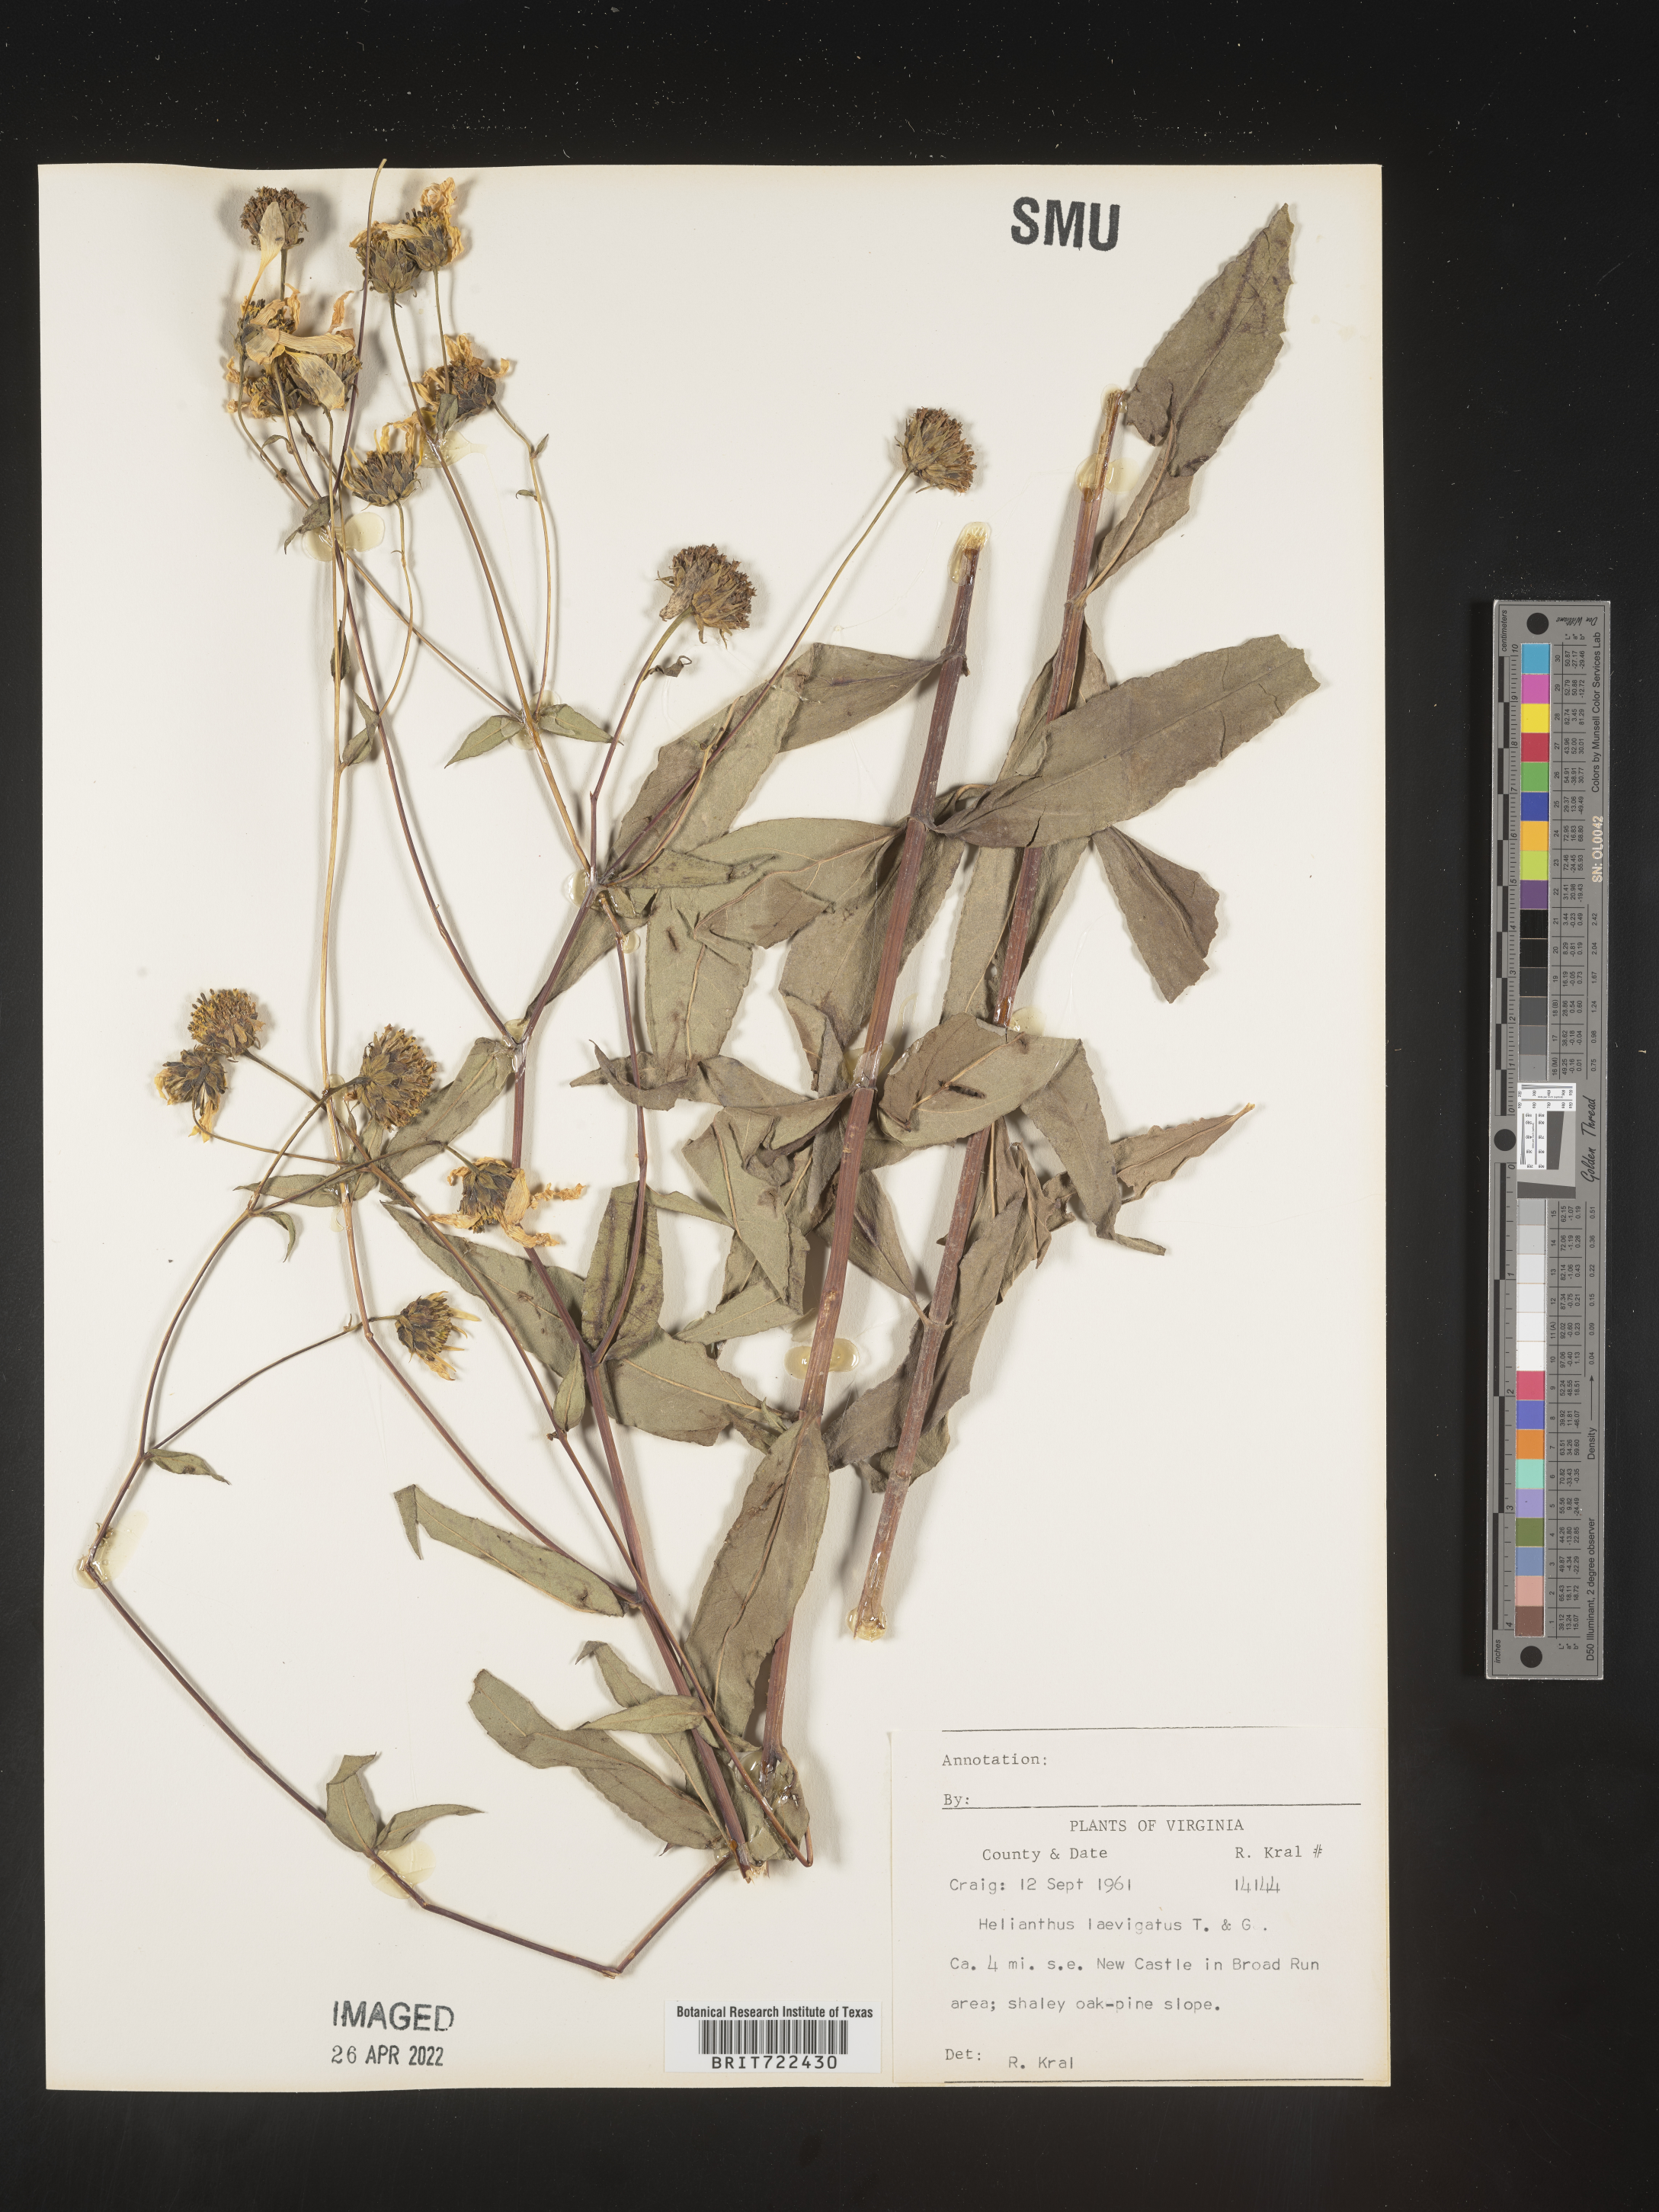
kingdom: Plantae
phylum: Tracheophyta
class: Magnoliopsida
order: Asterales
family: Asteraceae
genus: Helianthus
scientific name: Helianthus laevigatus
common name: Smooth sunflower
